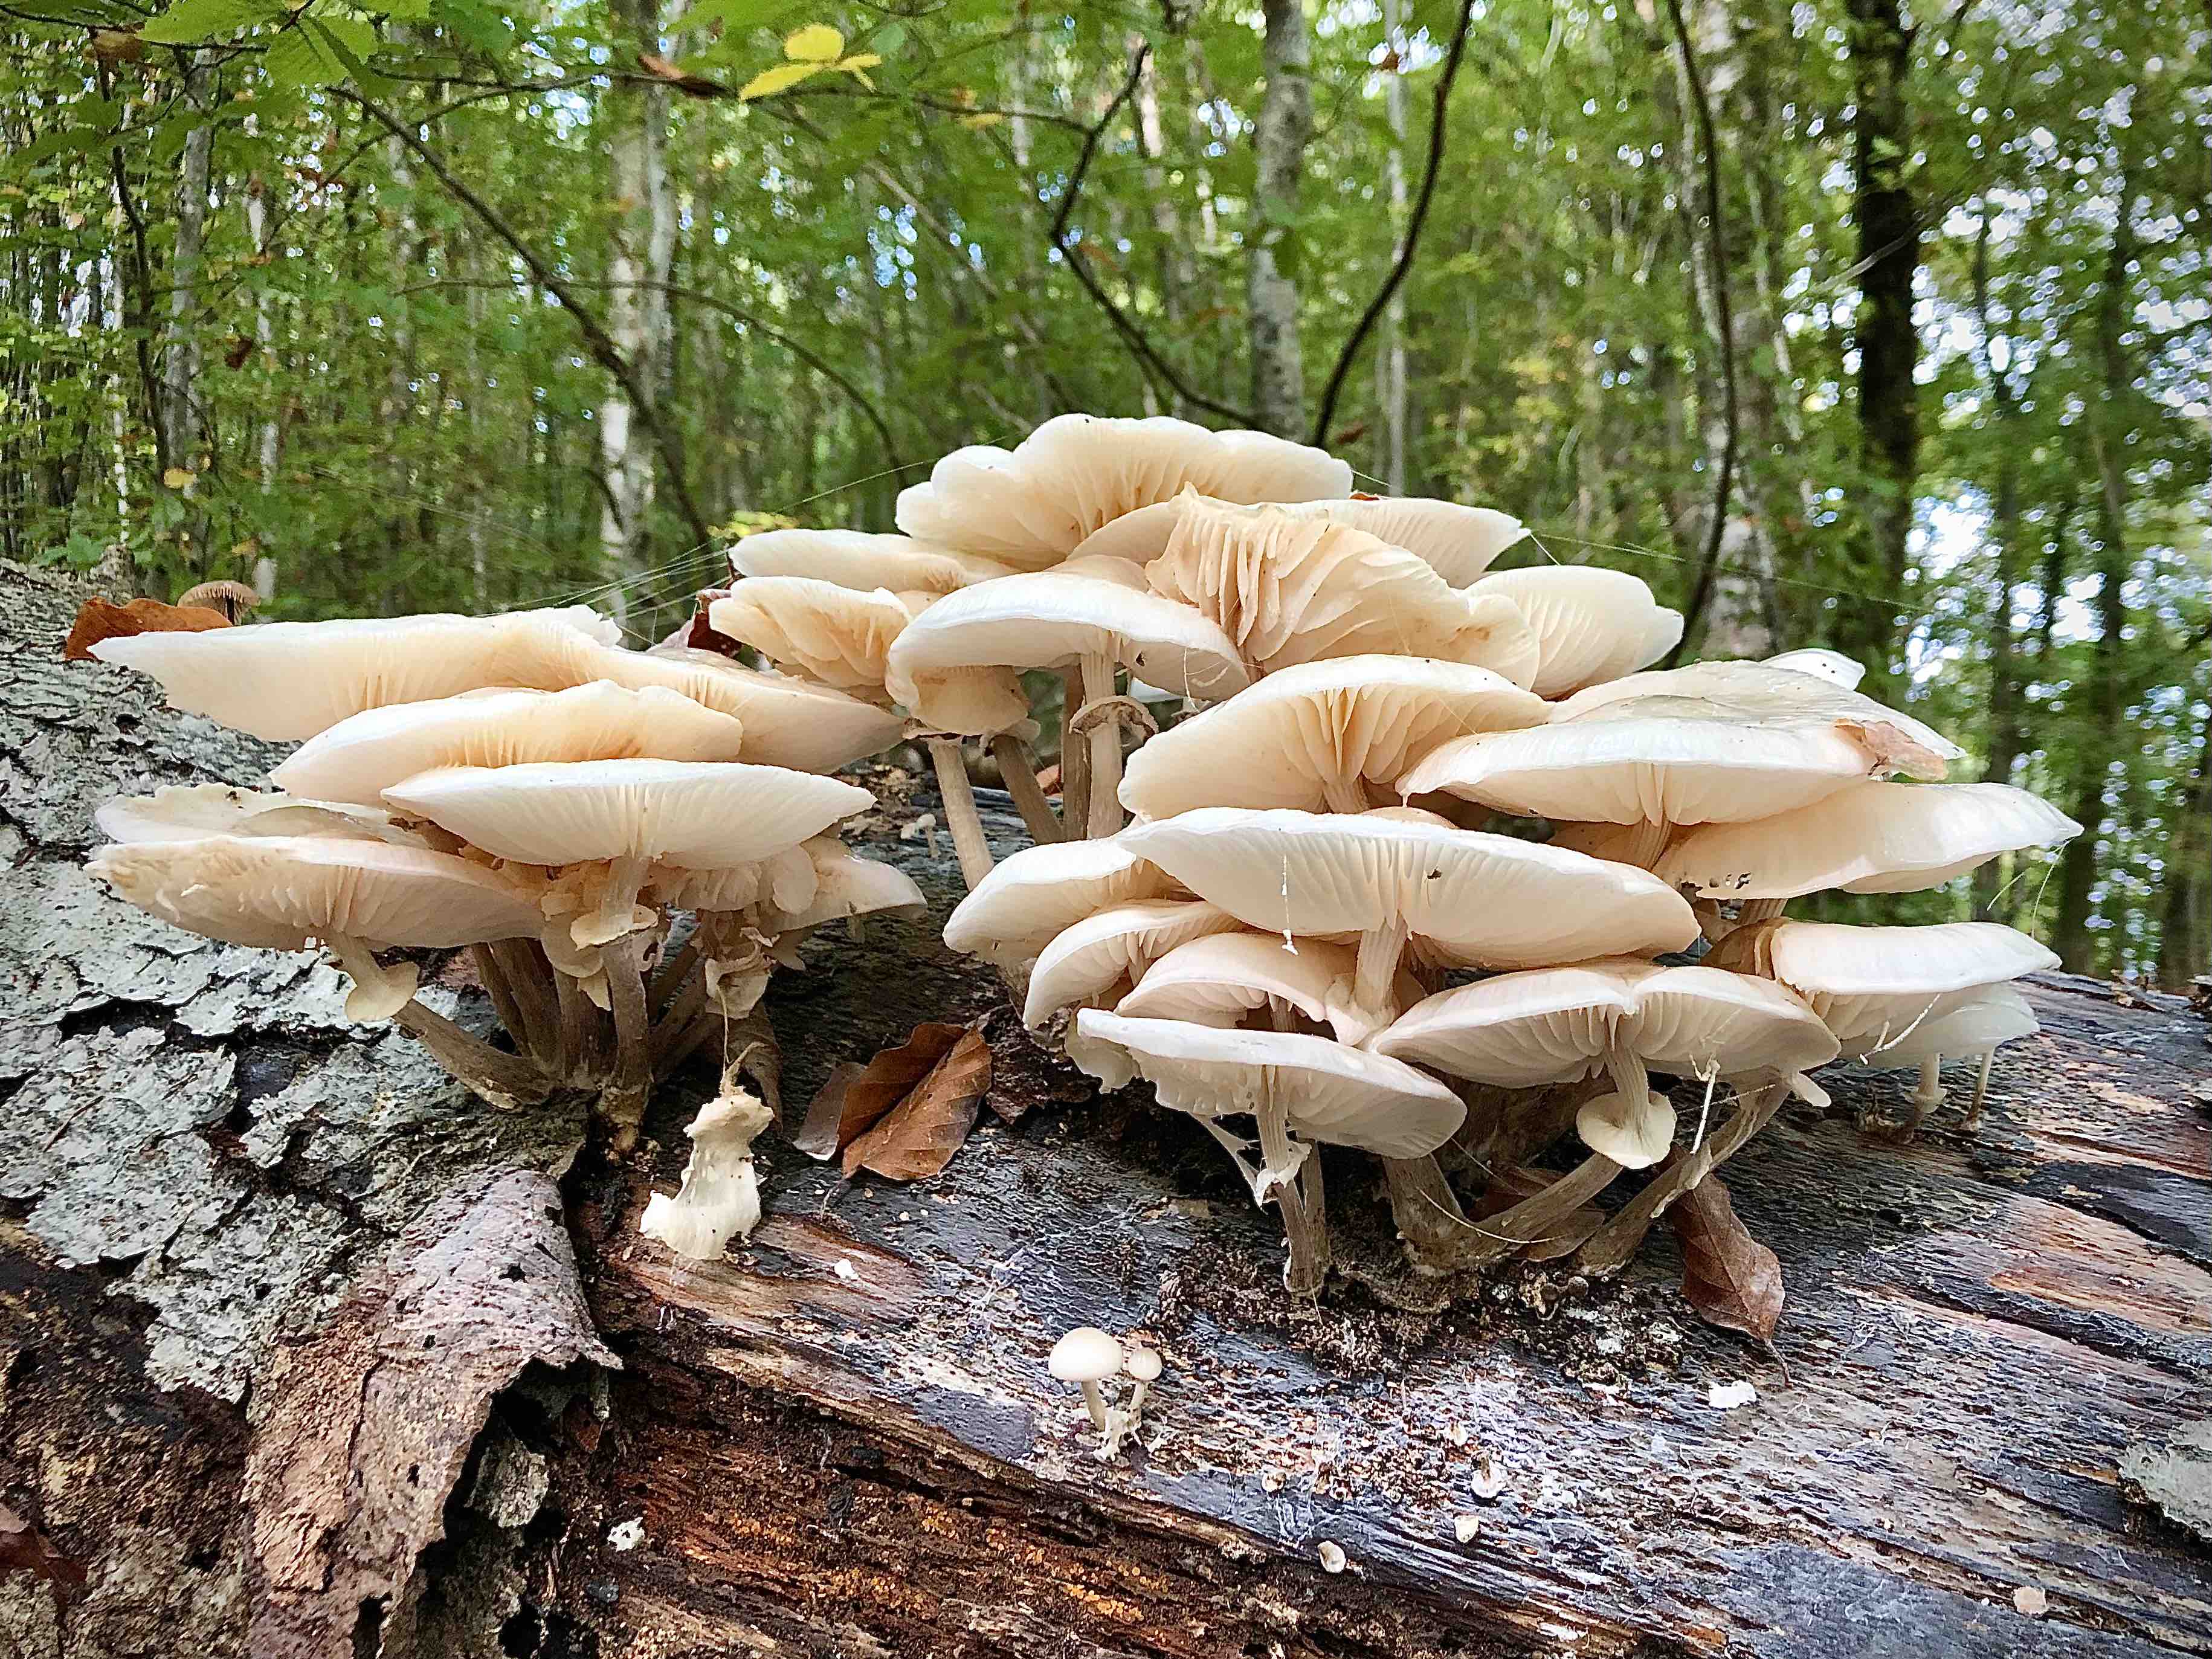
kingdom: Fungi
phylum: Basidiomycota
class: Agaricomycetes
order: Agaricales
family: Physalacriaceae
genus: Mucidula
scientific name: Mucidula mucida
